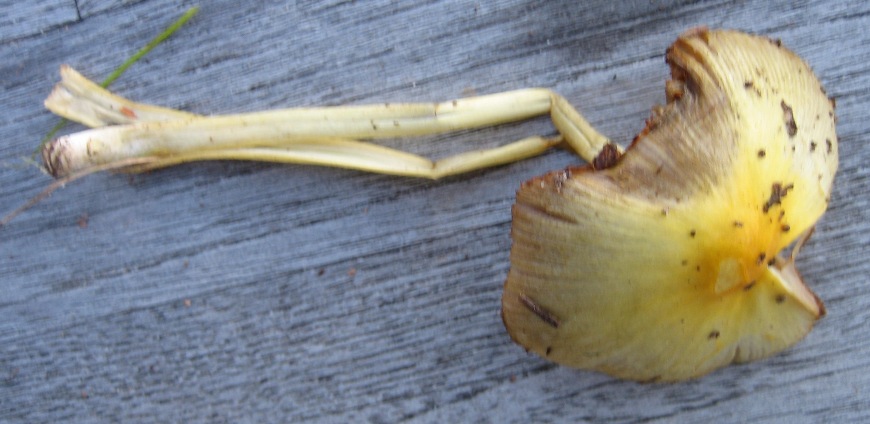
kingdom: Fungi
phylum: Basidiomycota
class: Agaricomycetes
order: Agaricales
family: Bolbitiaceae
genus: Bolbitius
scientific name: Bolbitius titubans
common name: almindelig gulhat
